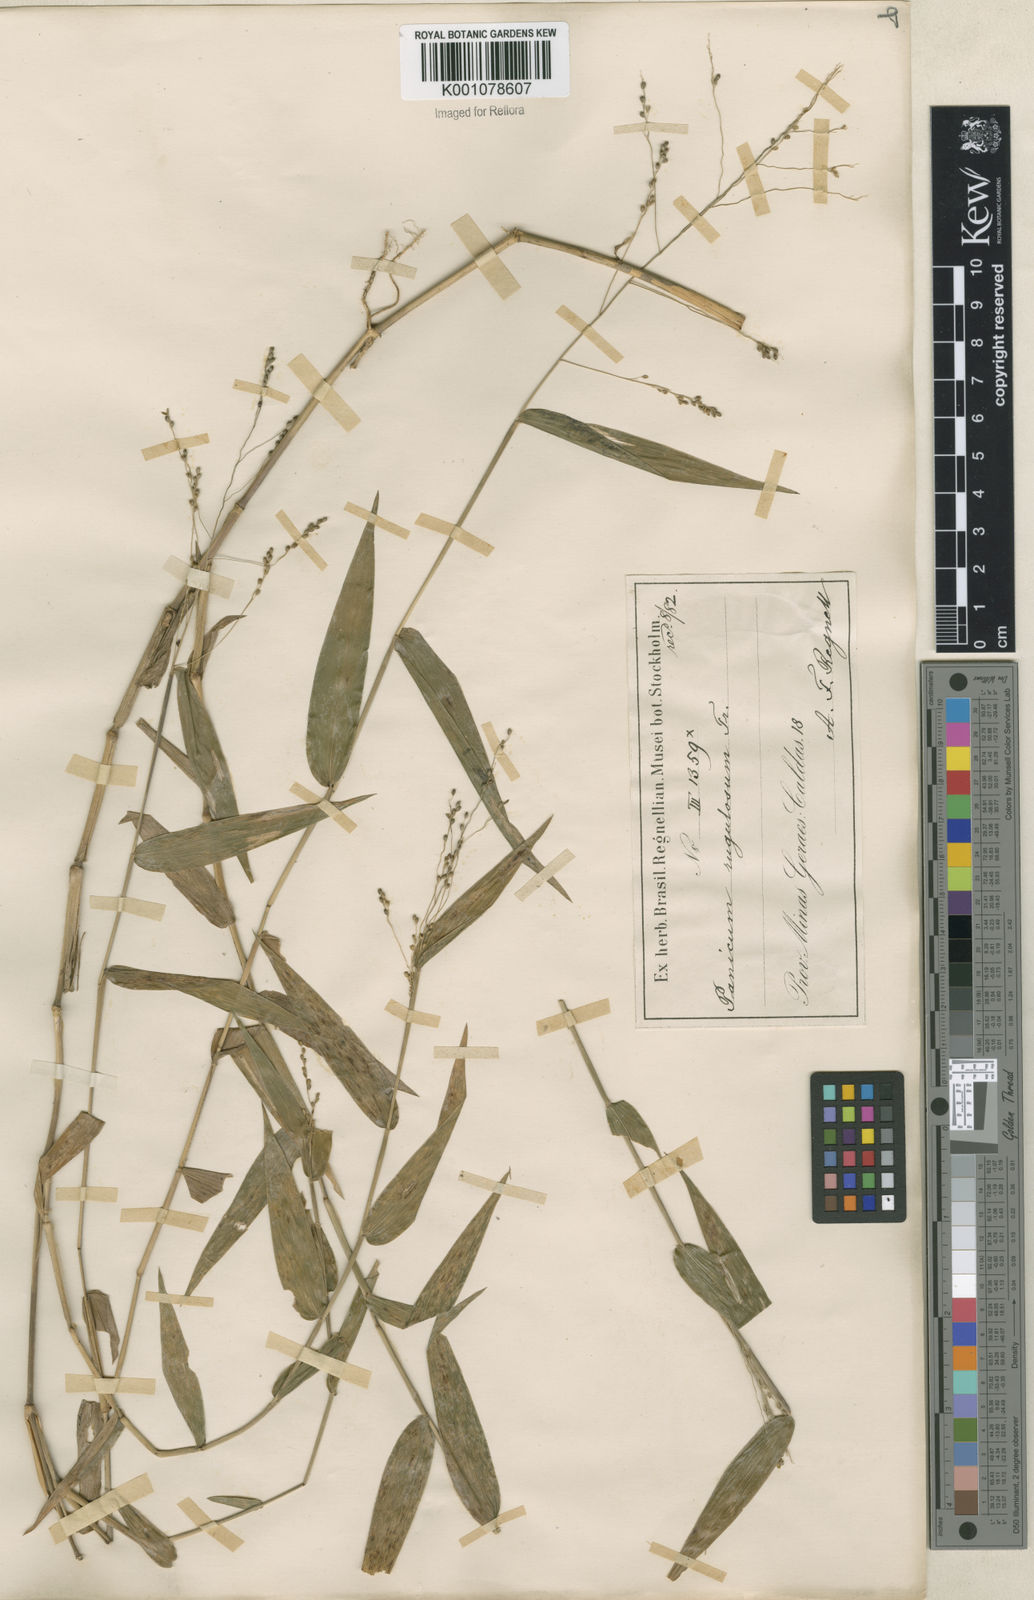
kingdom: Plantae
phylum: Tracheophyta
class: Liliopsida
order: Poales
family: Poaceae
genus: Panicum
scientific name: Panicum sellowii
